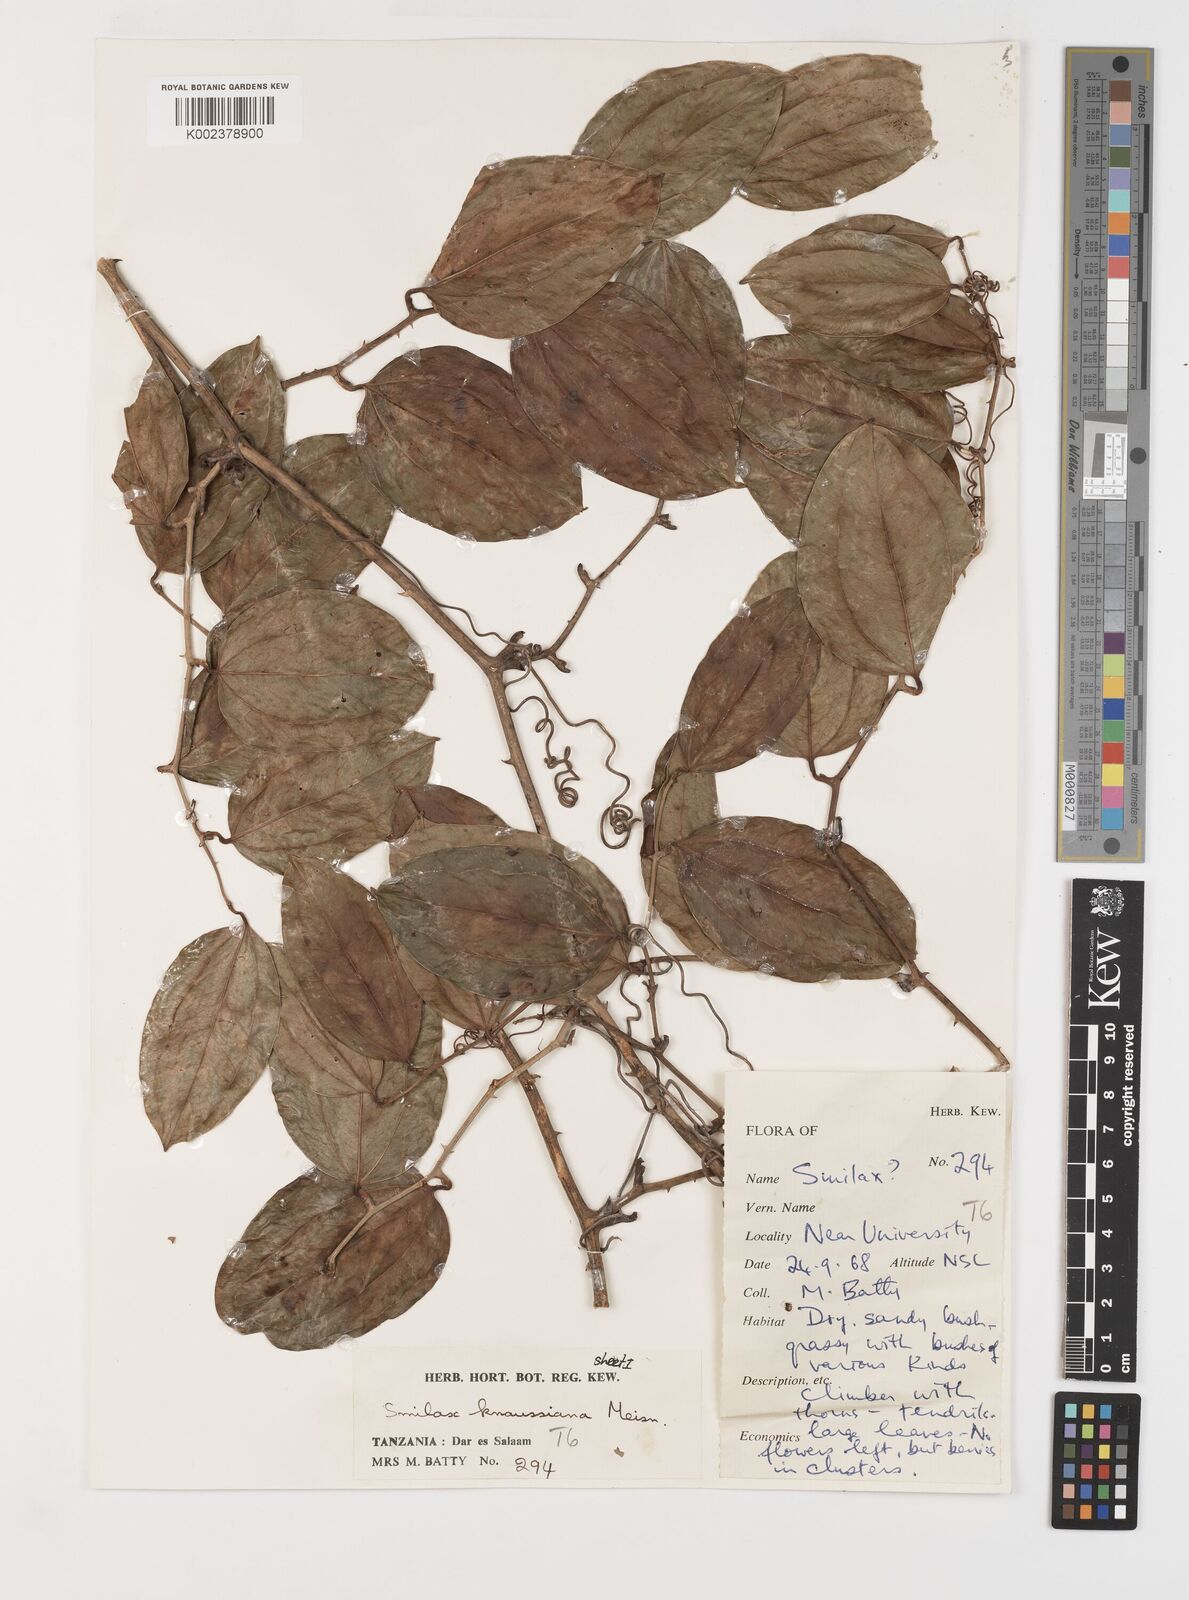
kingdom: Plantae
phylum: Tracheophyta
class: Liliopsida
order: Liliales
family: Smilacaceae
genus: Smilax
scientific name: Smilax anceps
